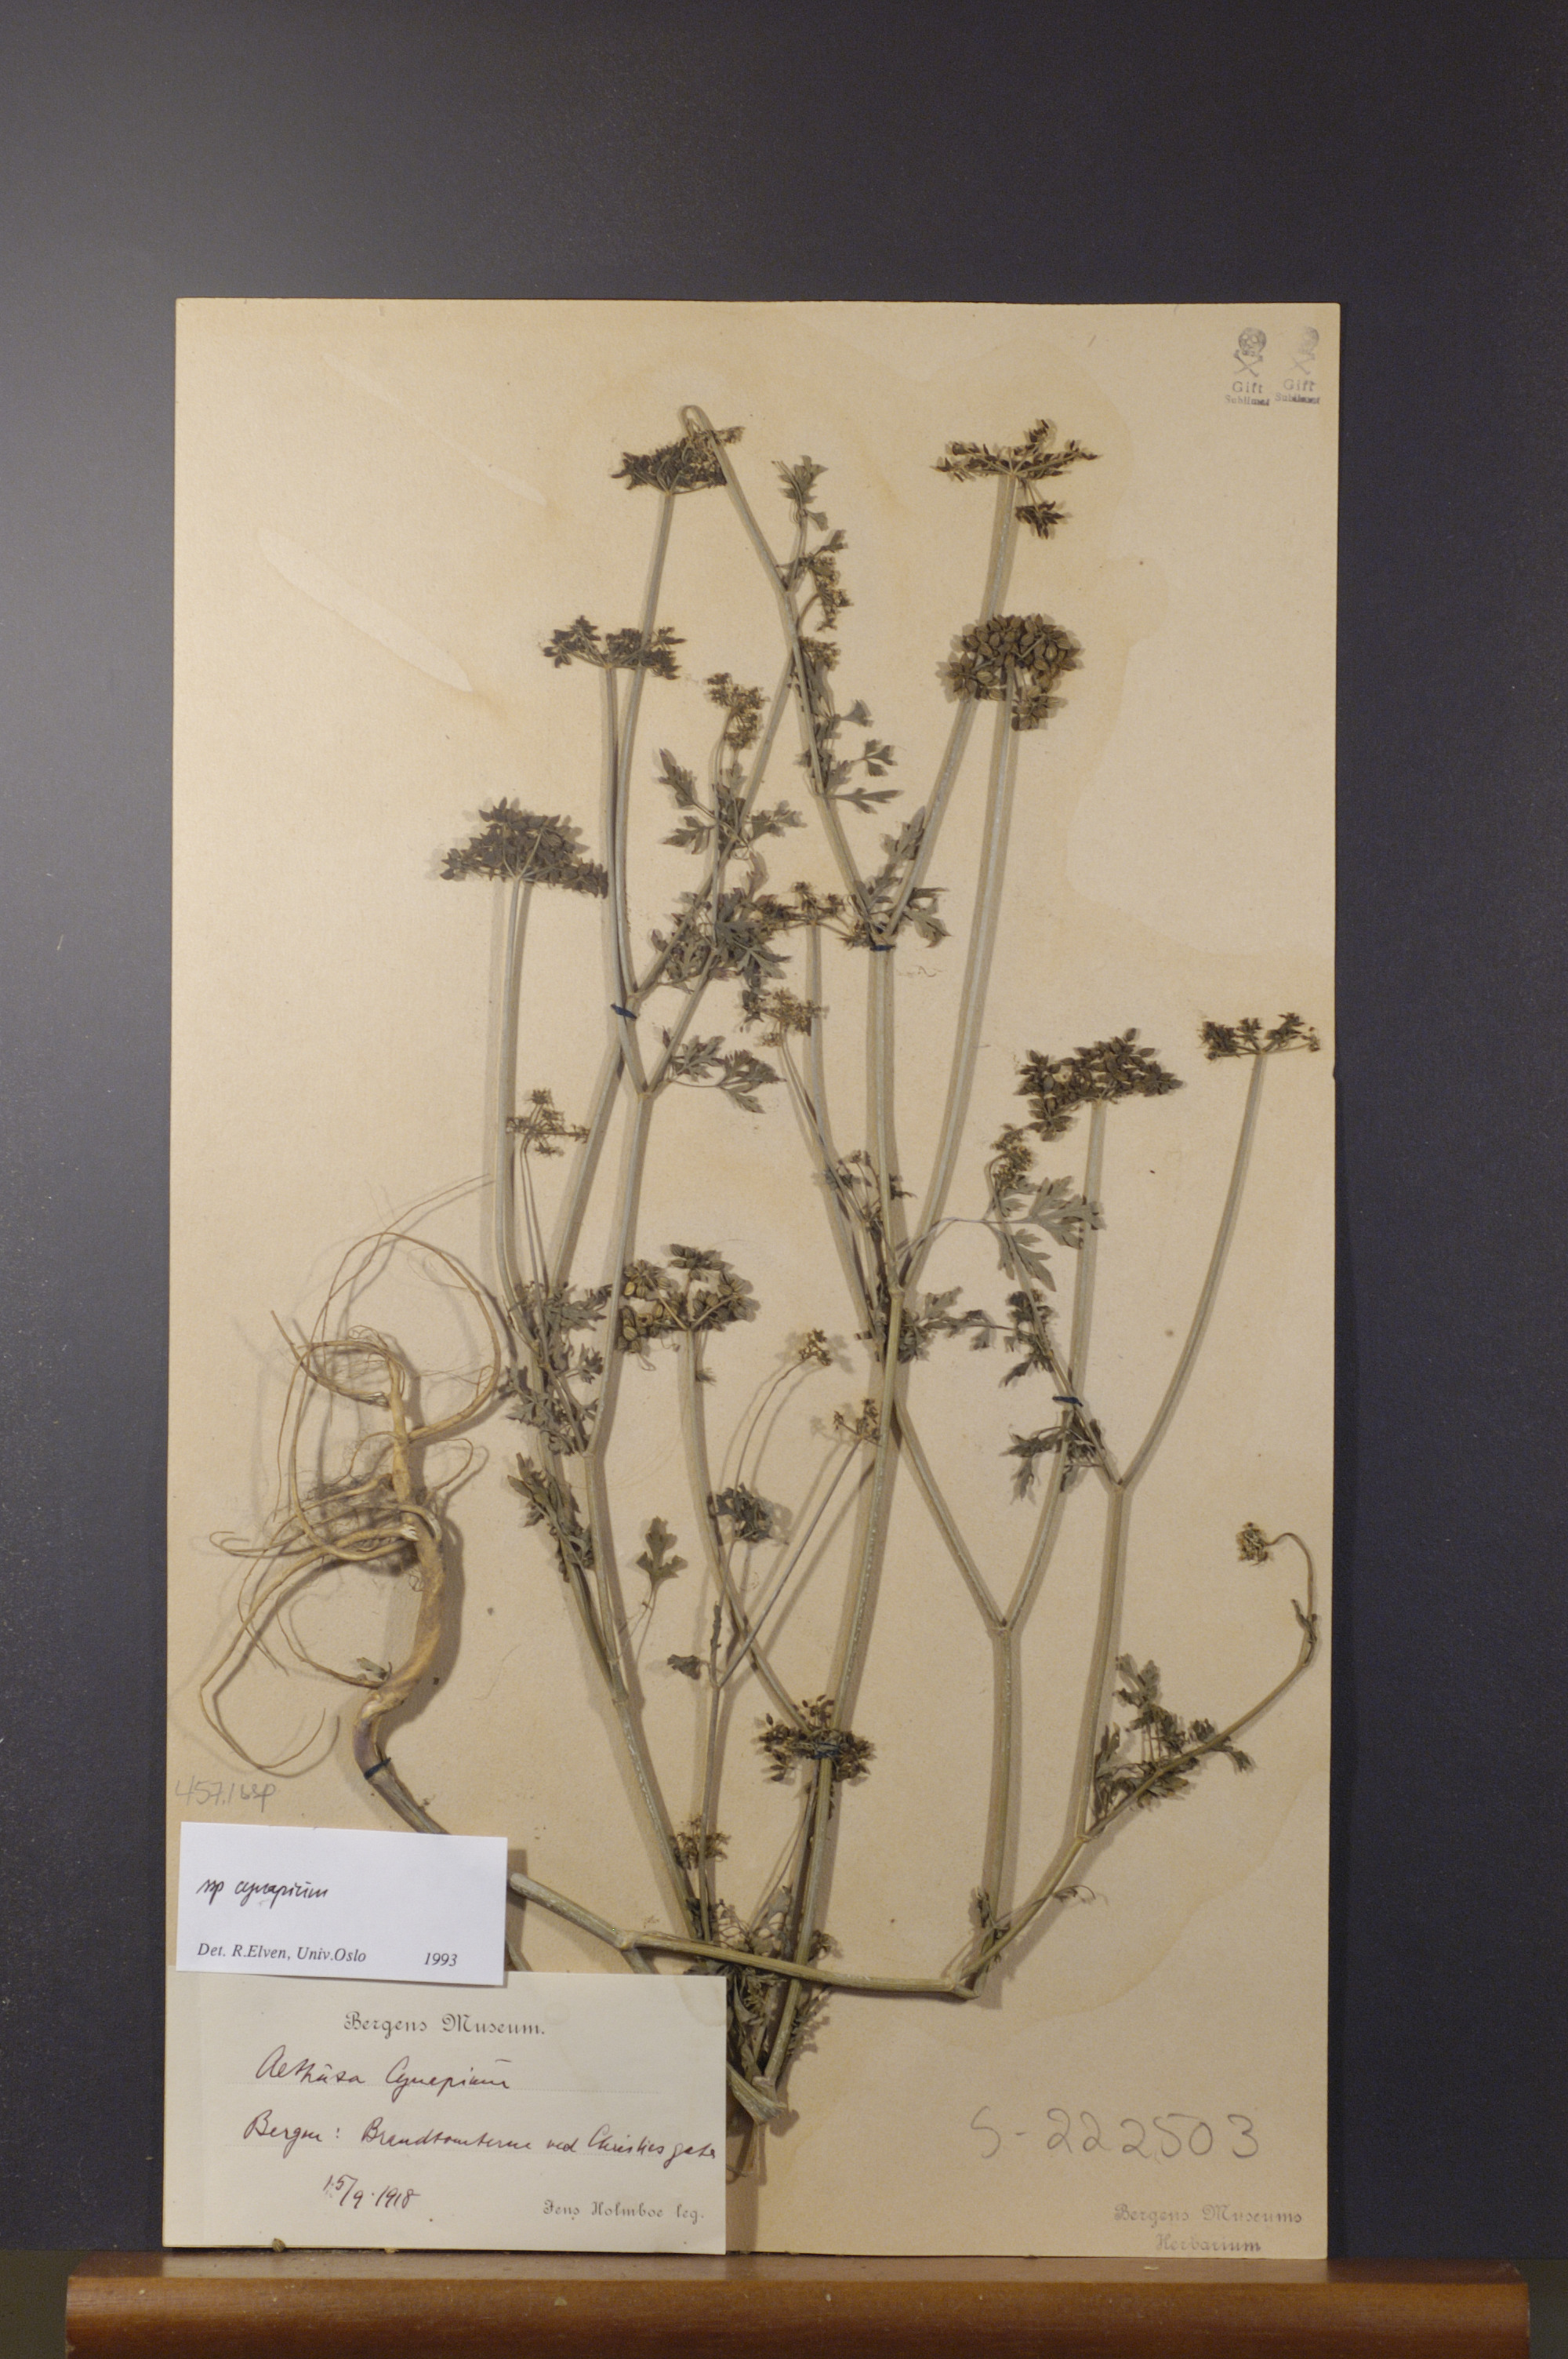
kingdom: Plantae
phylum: Tracheophyta
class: Magnoliopsida
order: Apiales
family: Apiaceae
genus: Aethusa
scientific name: Aethusa cynapium
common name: Fool's parsley
